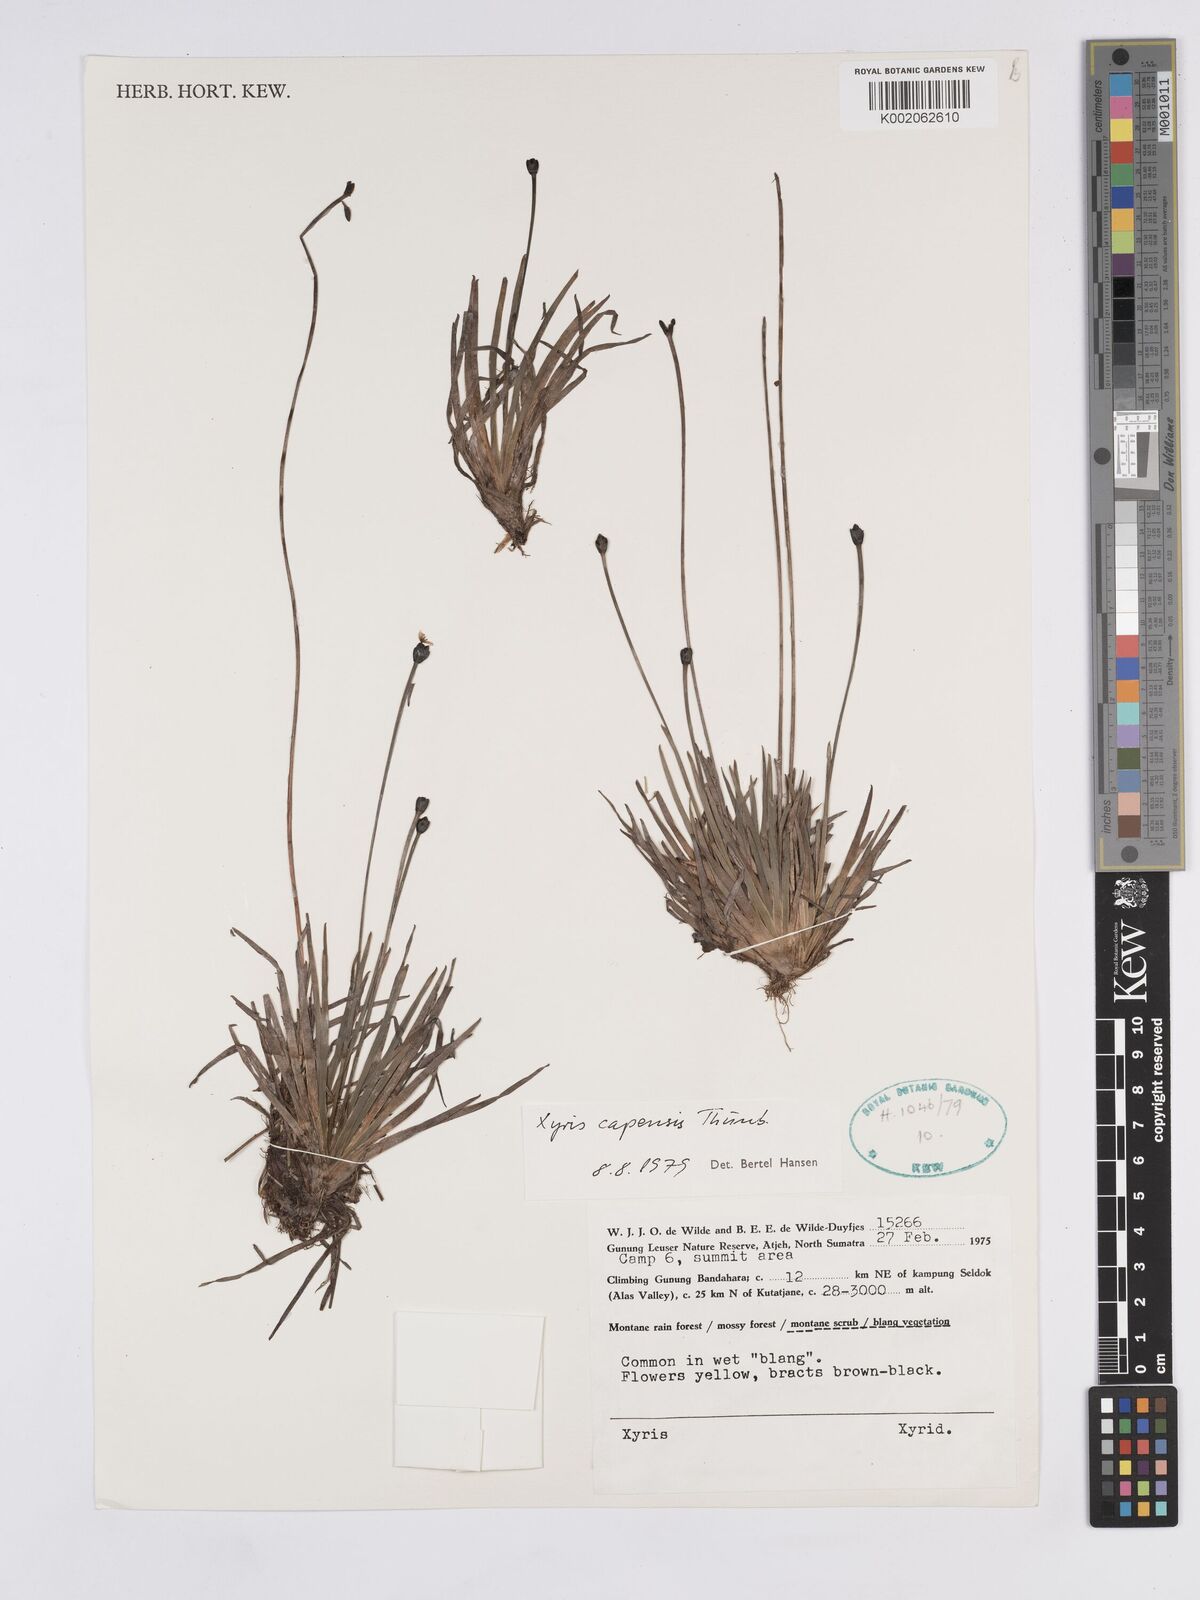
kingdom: Plantae
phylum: Tracheophyta
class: Liliopsida
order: Poales
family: Xyridaceae
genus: Xyris
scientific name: Xyris capensis
